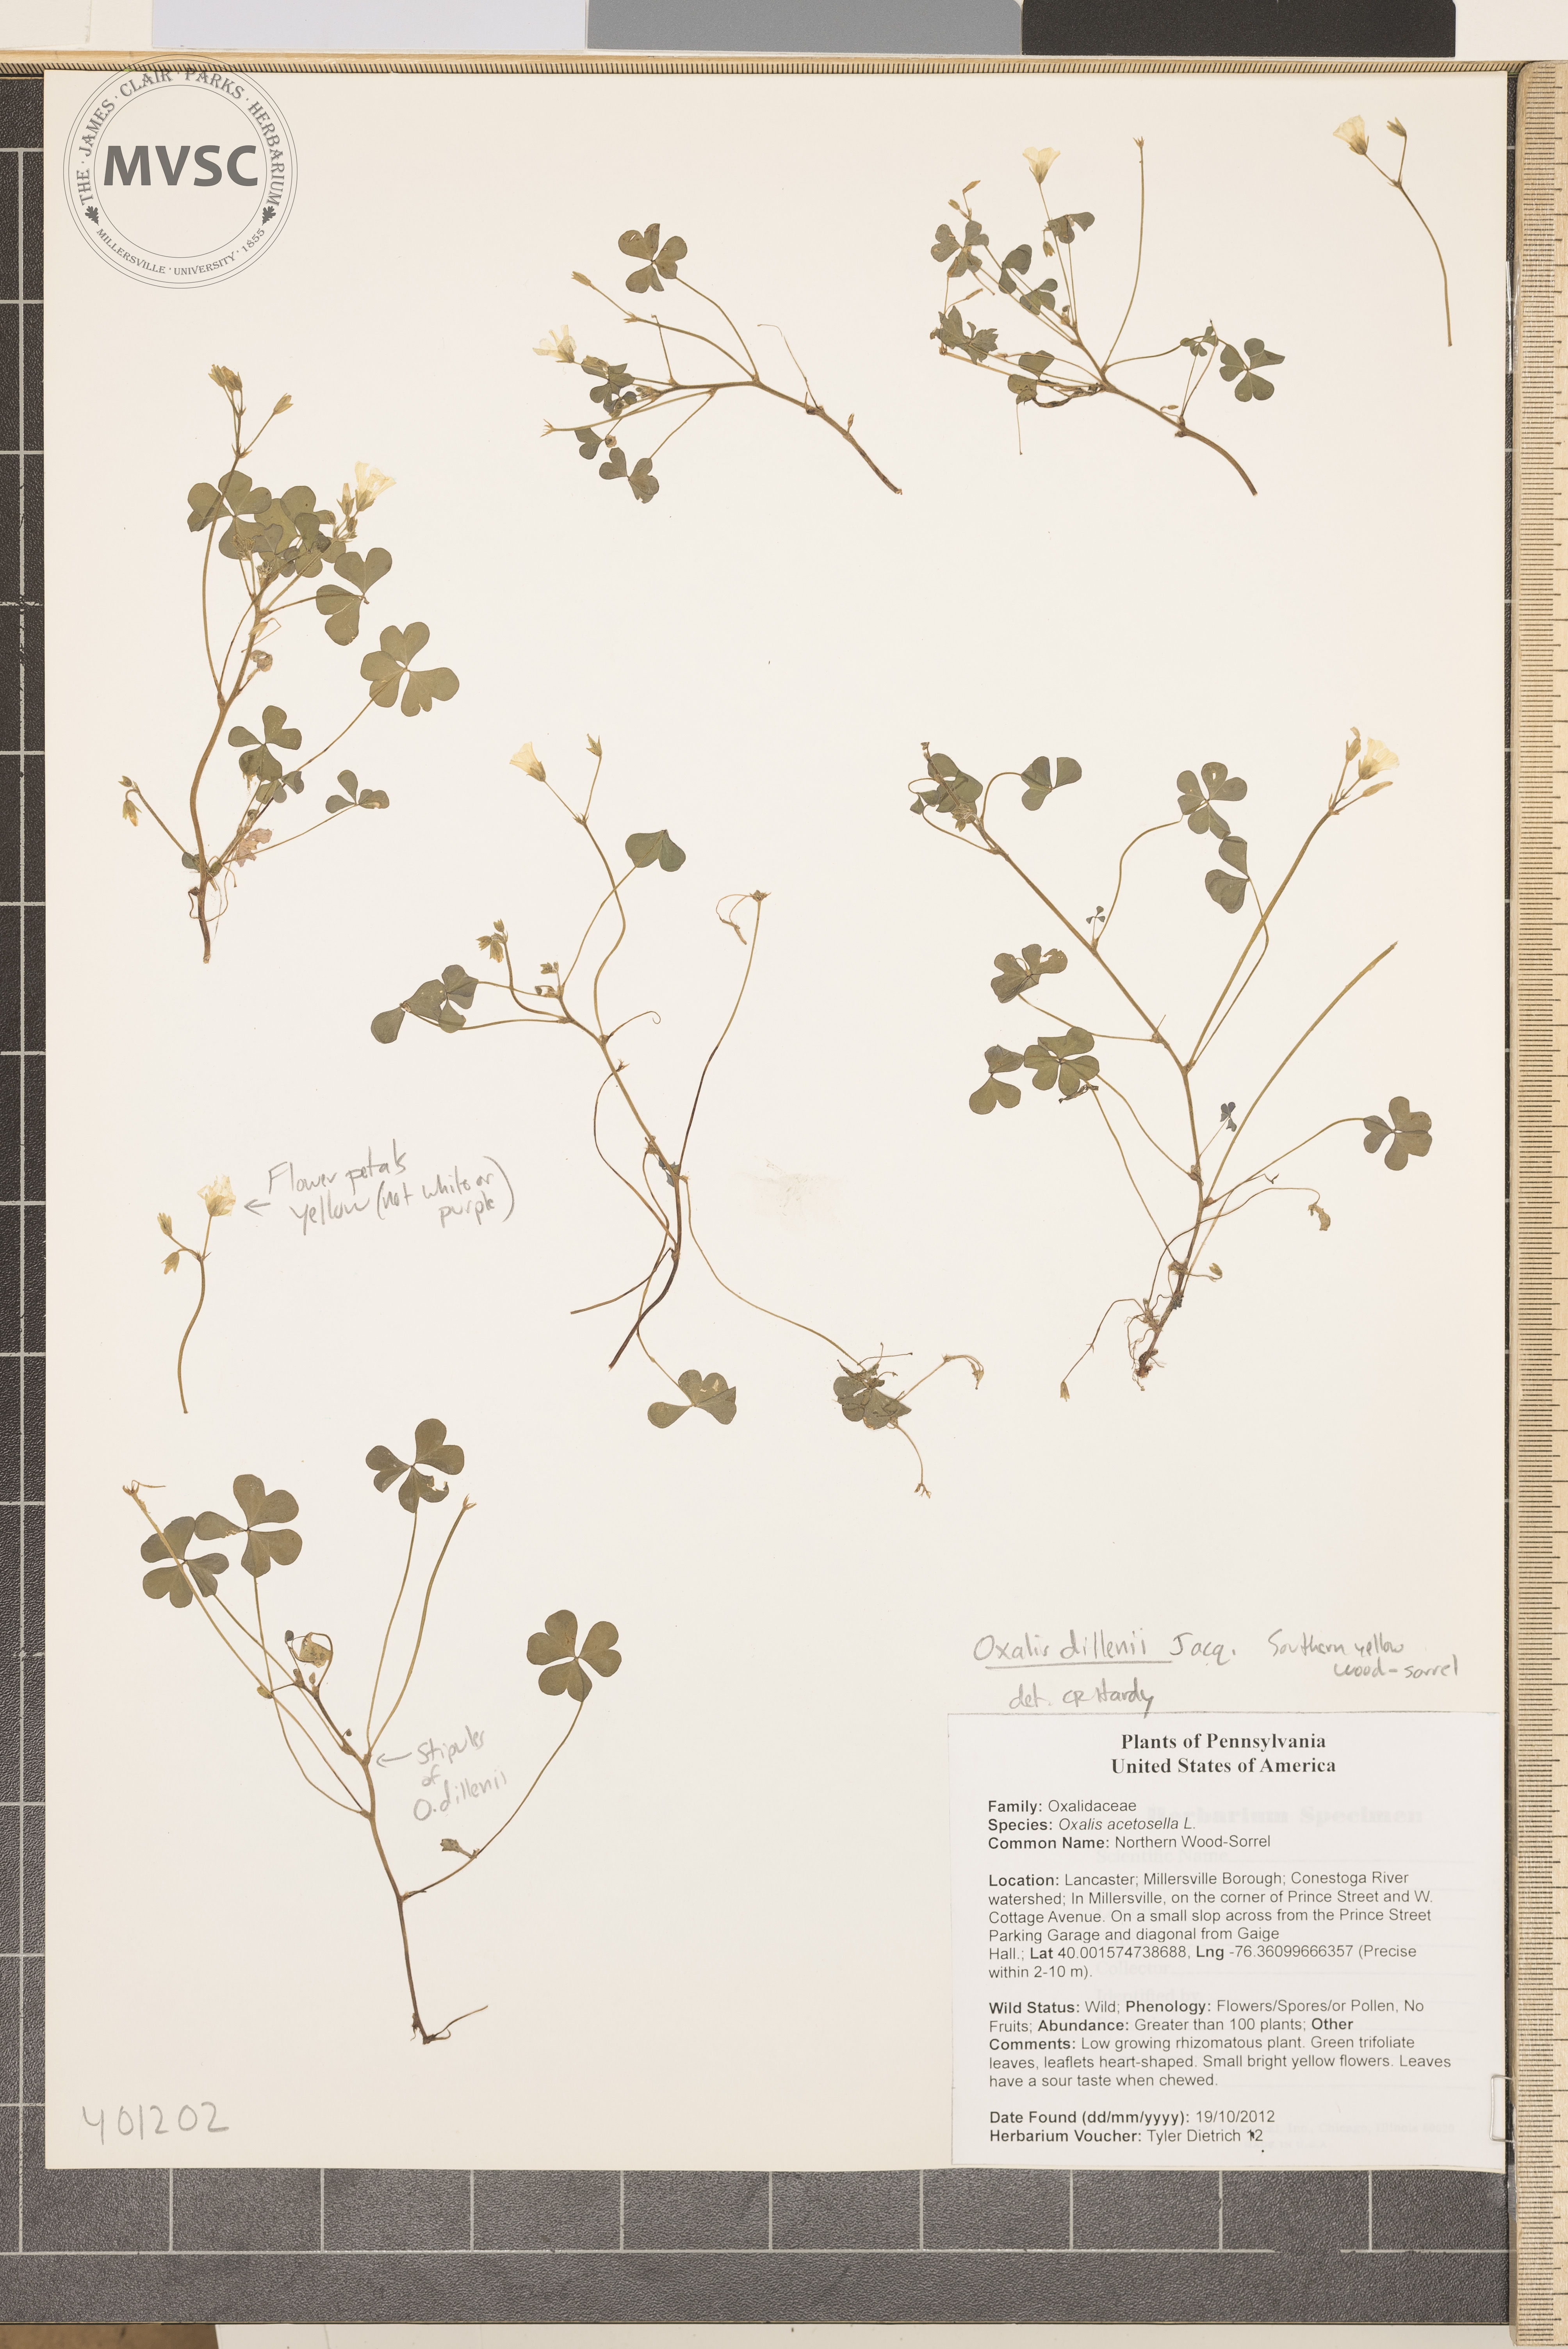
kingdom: Plantae
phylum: Tracheophyta
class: Magnoliopsida
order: Oxalidales
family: Oxalidaceae
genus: Oxalis
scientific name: Oxalis dillenii
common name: Southern yellow wood-sorrel
